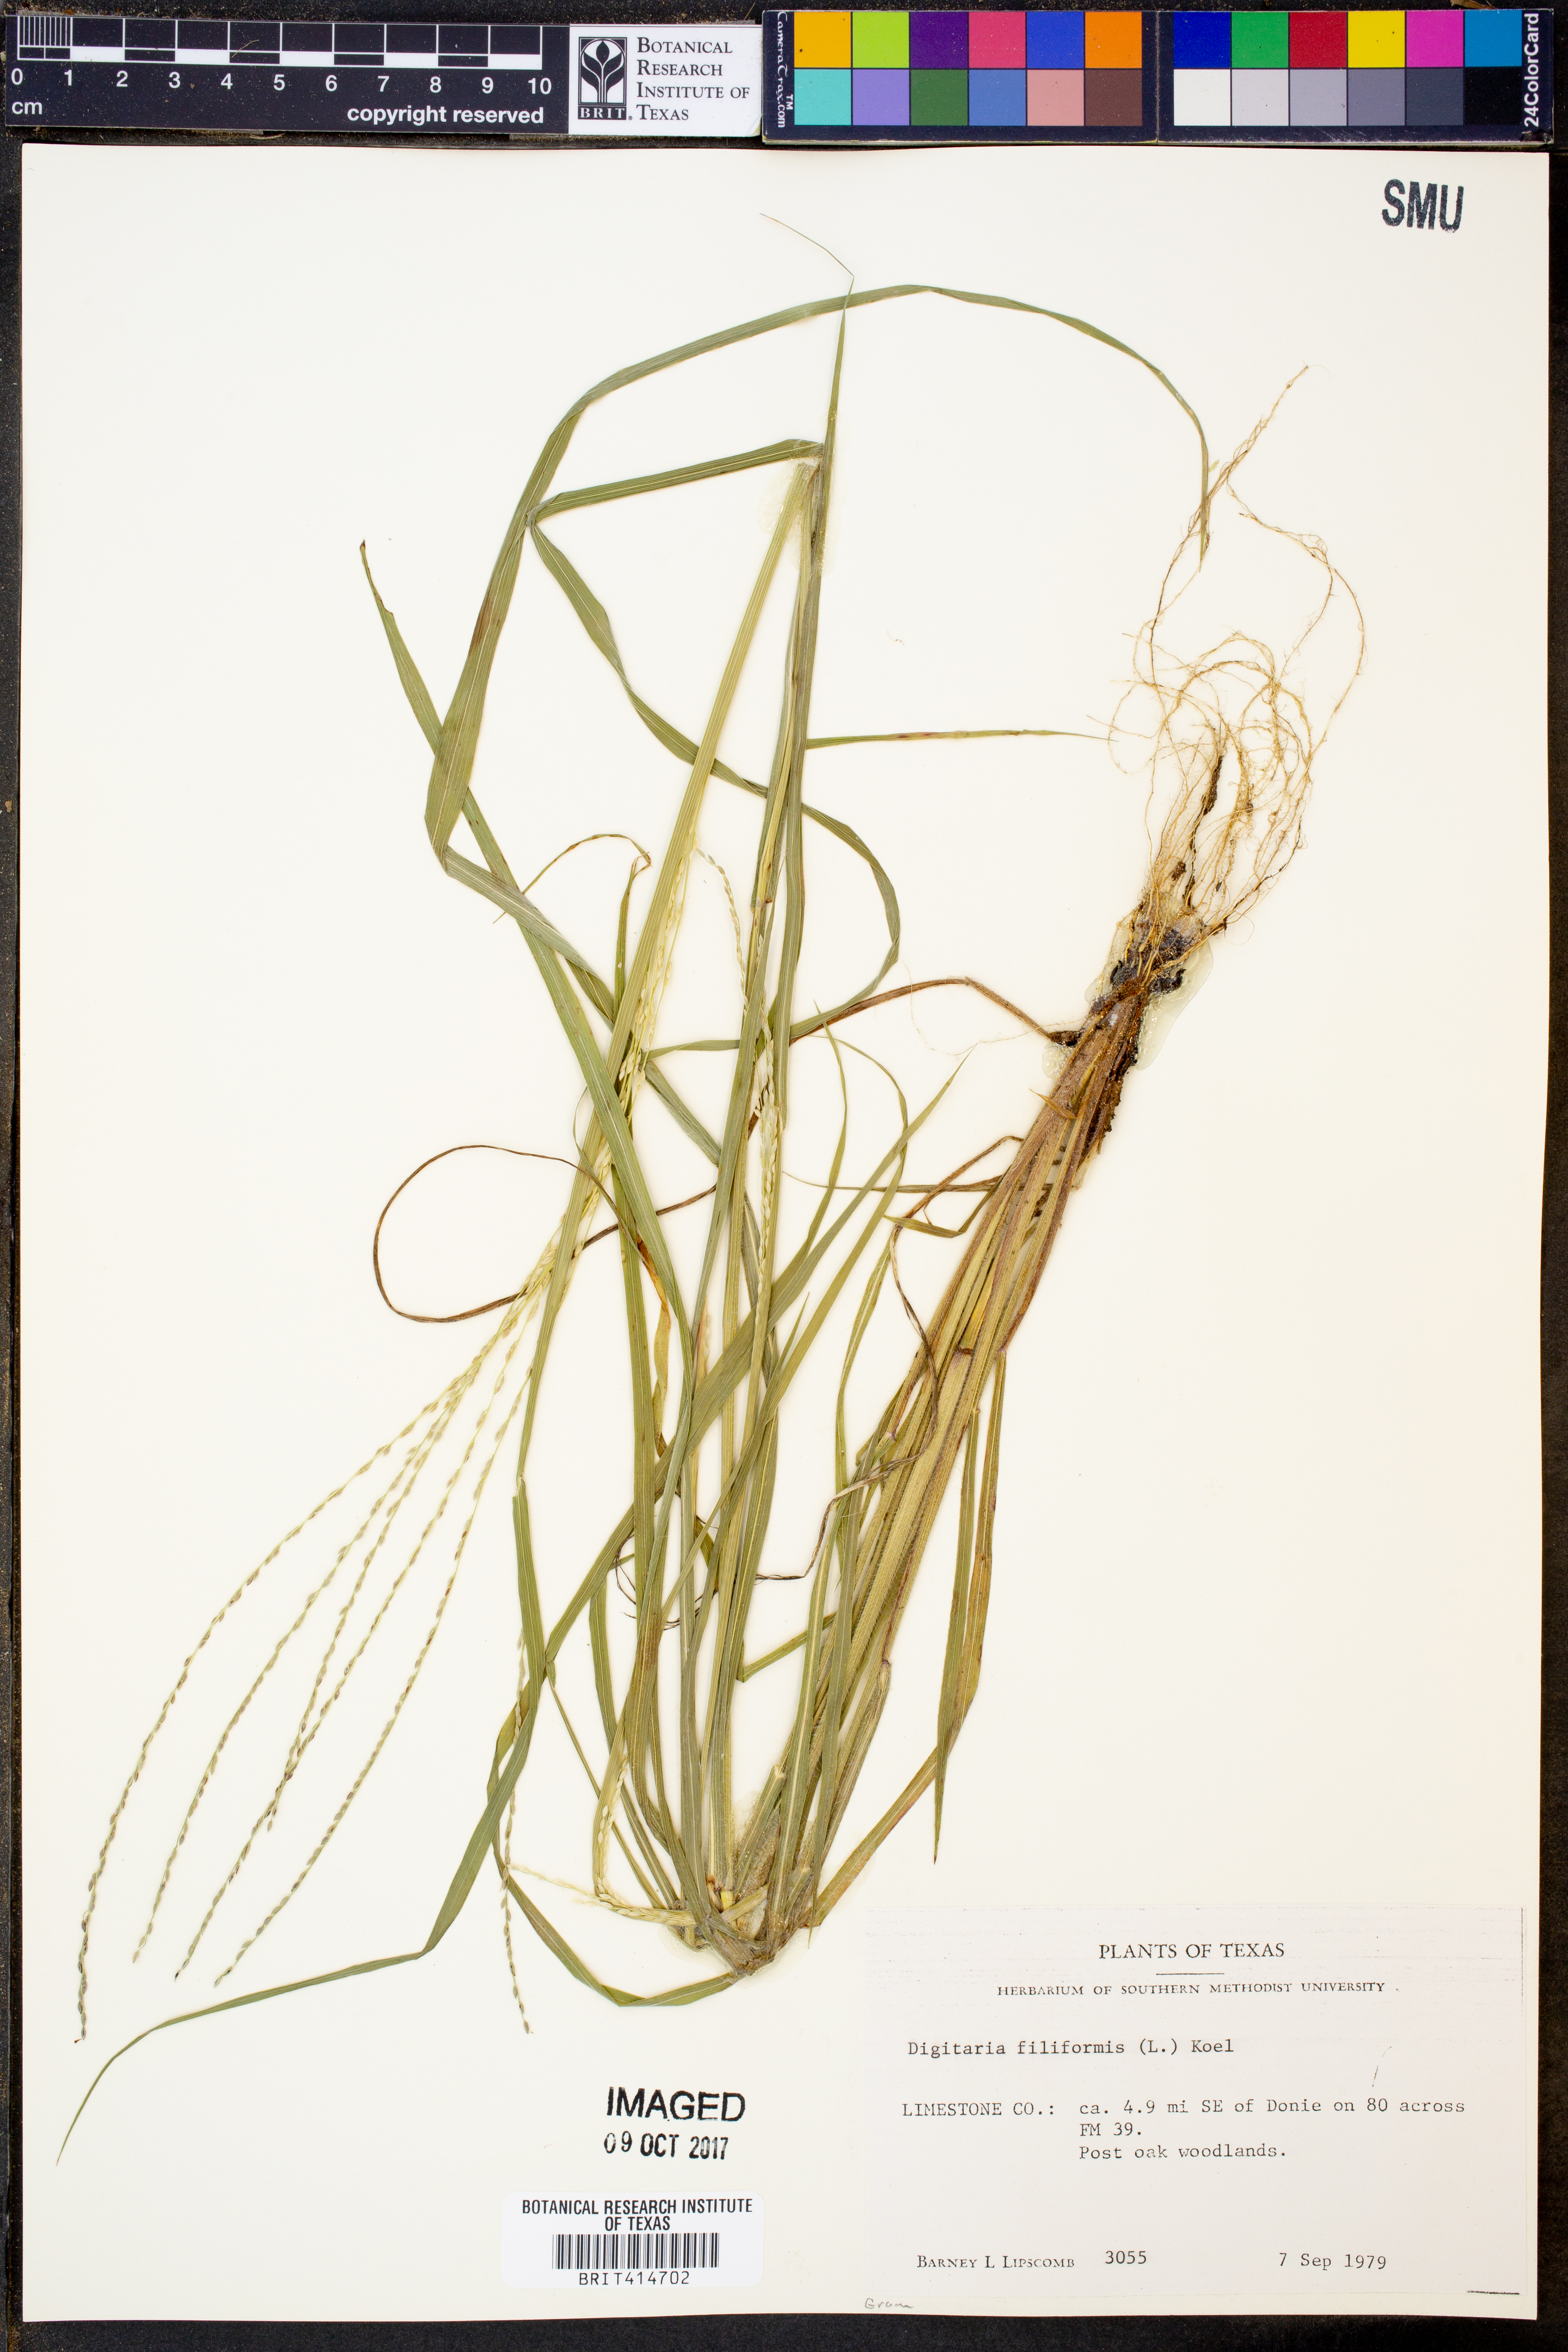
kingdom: Plantae
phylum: Tracheophyta
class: Liliopsida
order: Poales
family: Poaceae
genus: Digitaria
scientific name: Digitaria filiformis
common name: Slender crabgrass
